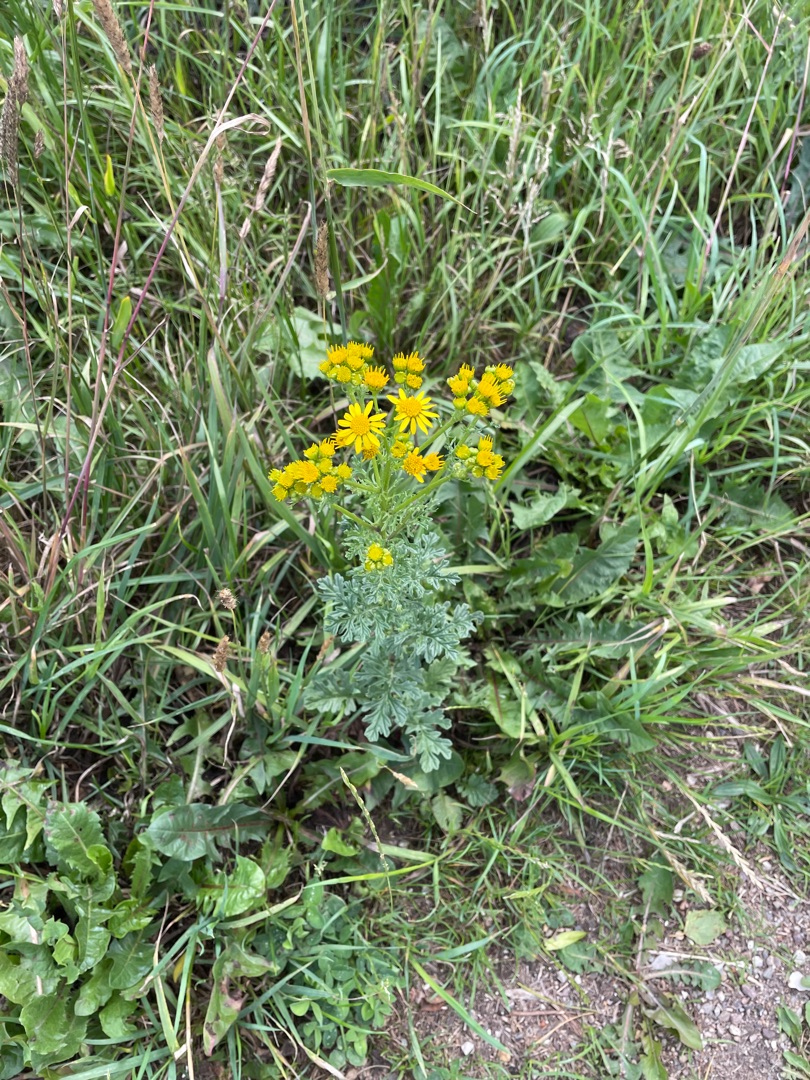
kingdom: Plantae
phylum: Tracheophyta
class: Magnoliopsida
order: Asterales
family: Asteraceae
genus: Jacobaea
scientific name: Jacobaea vulgaris
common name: Eng-brandbæger
